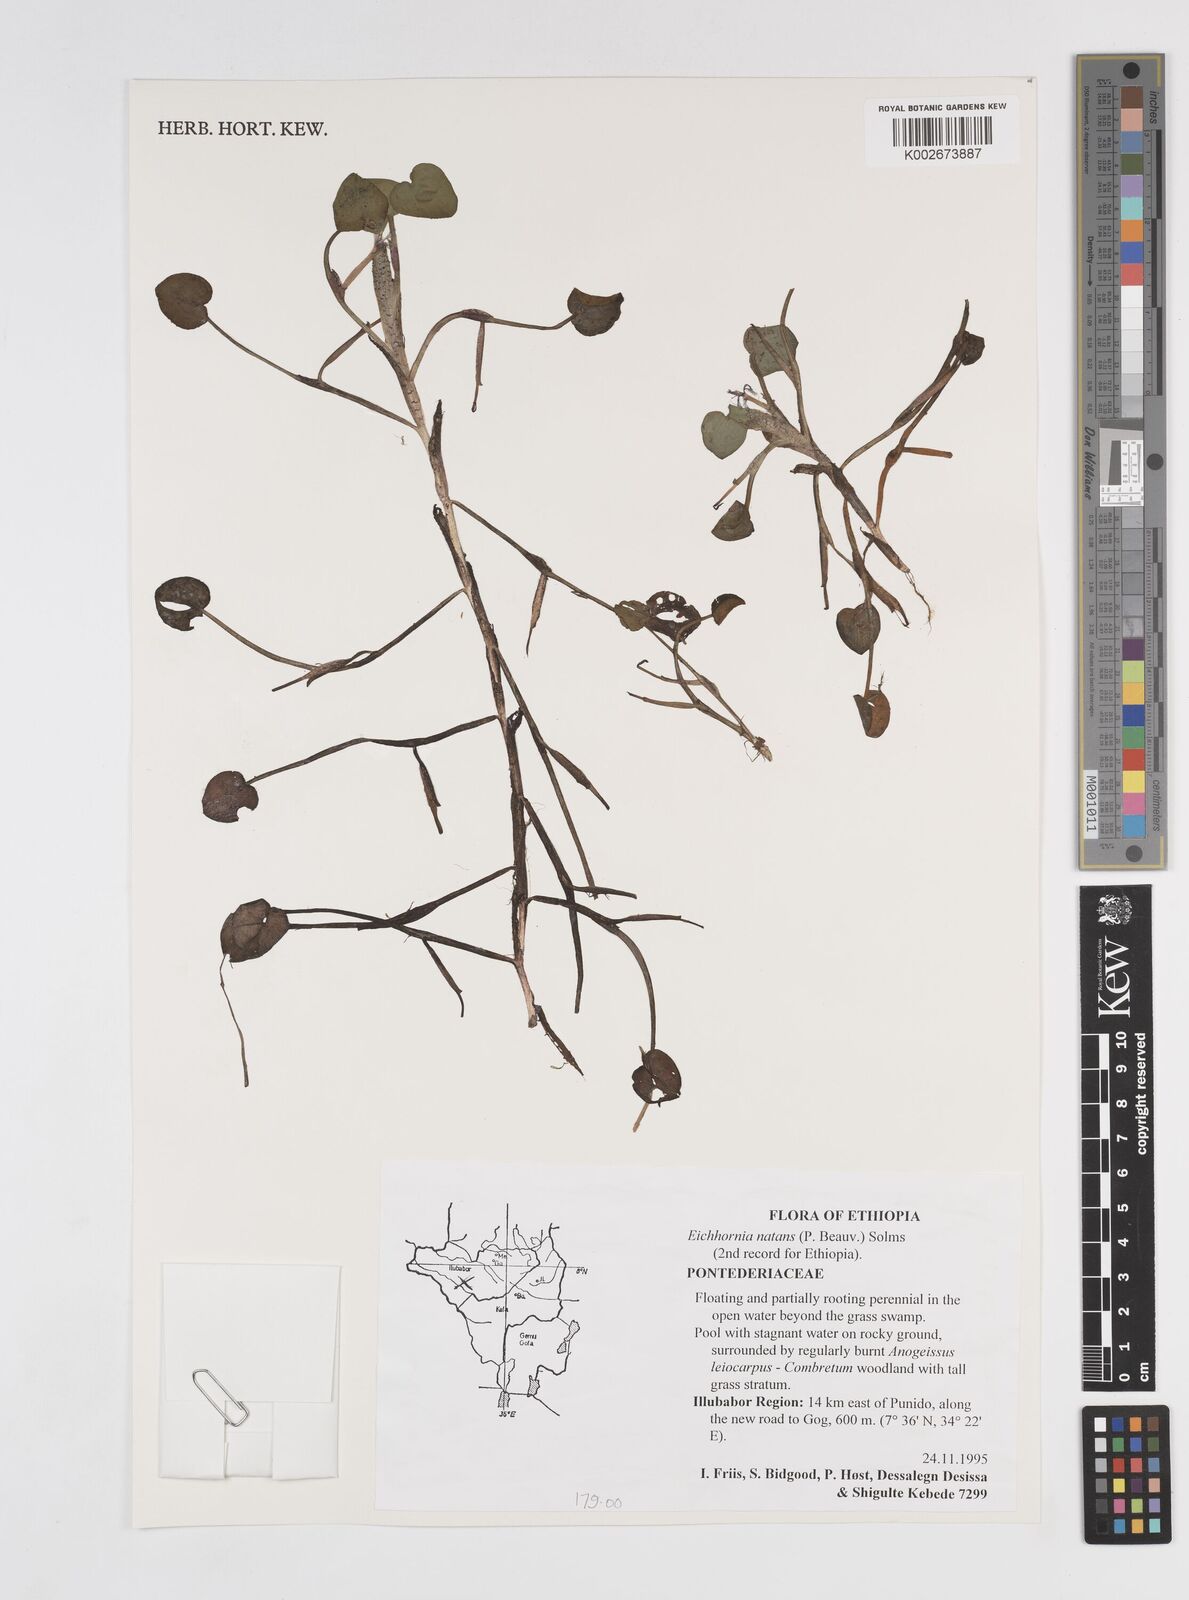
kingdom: Plantae
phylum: Tracheophyta
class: Liliopsida
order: Commelinales
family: Pontederiaceae
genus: Pontederia
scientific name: Pontederia diversifolia
